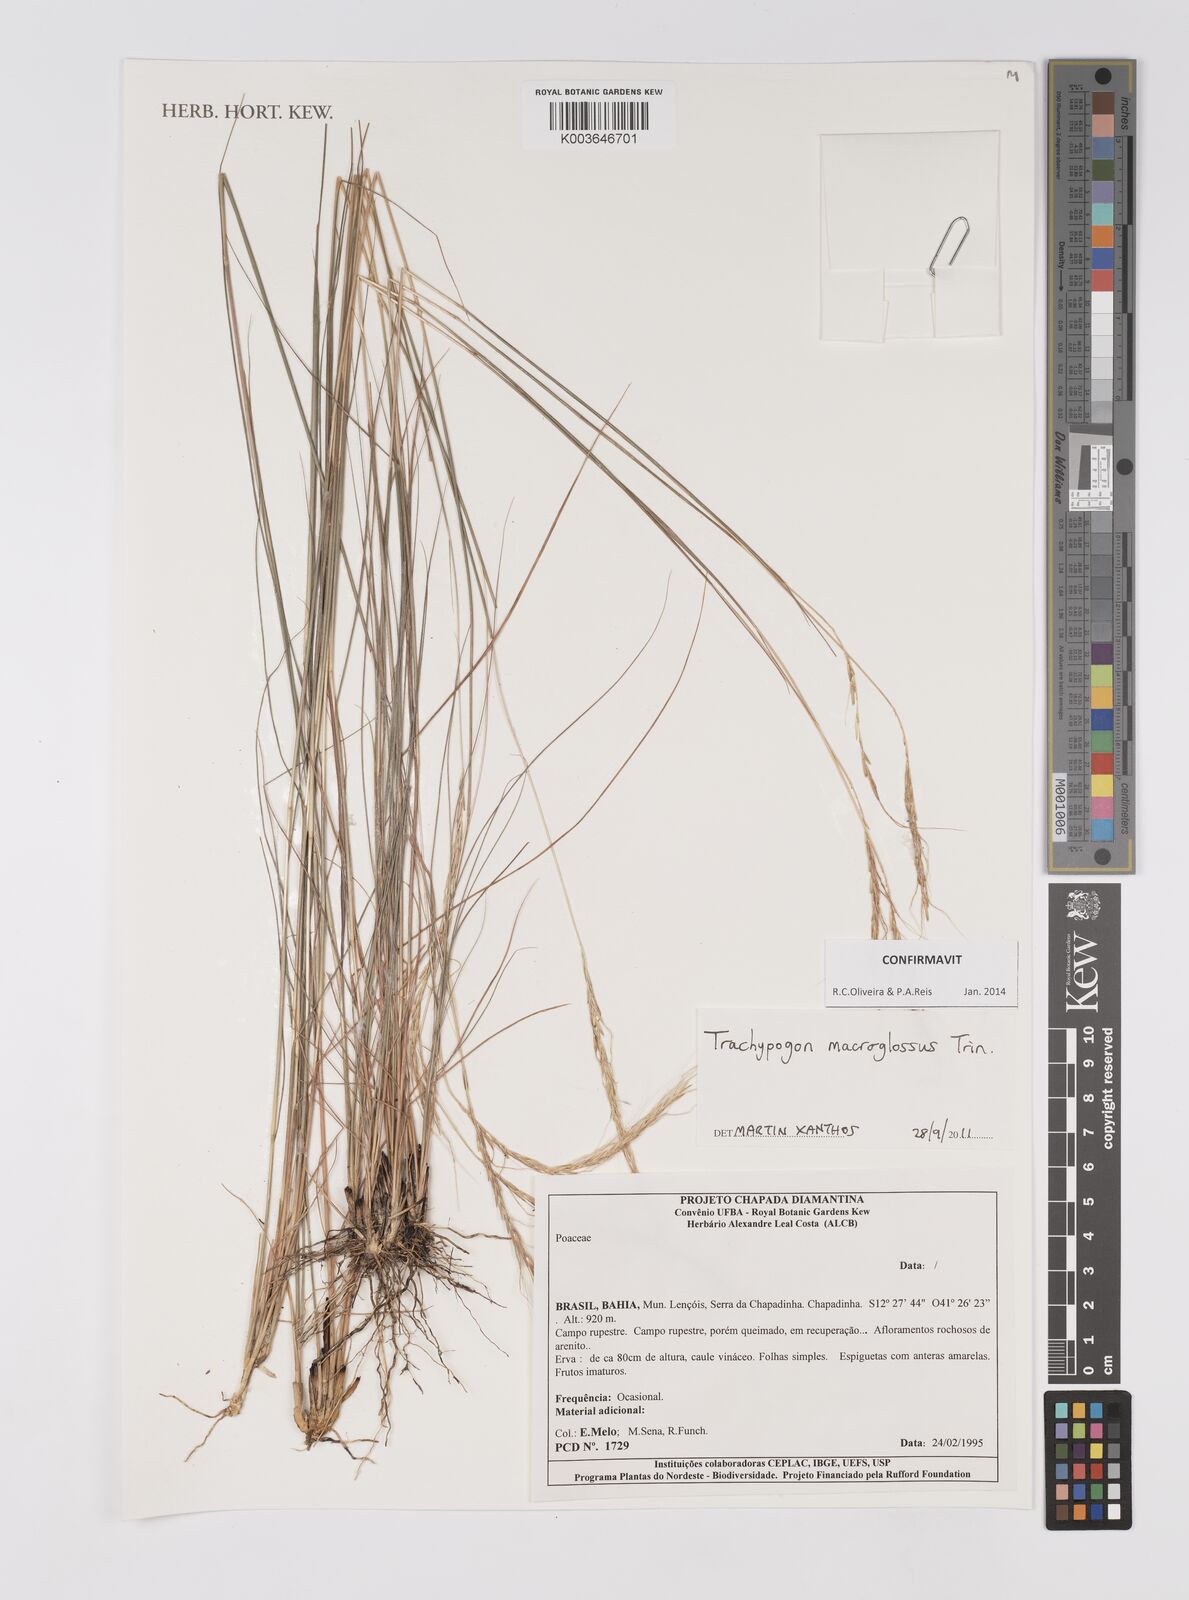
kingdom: Plantae
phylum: Tracheophyta
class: Liliopsida
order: Poales
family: Poaceae
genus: Trachypogon
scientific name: Trachypogon
